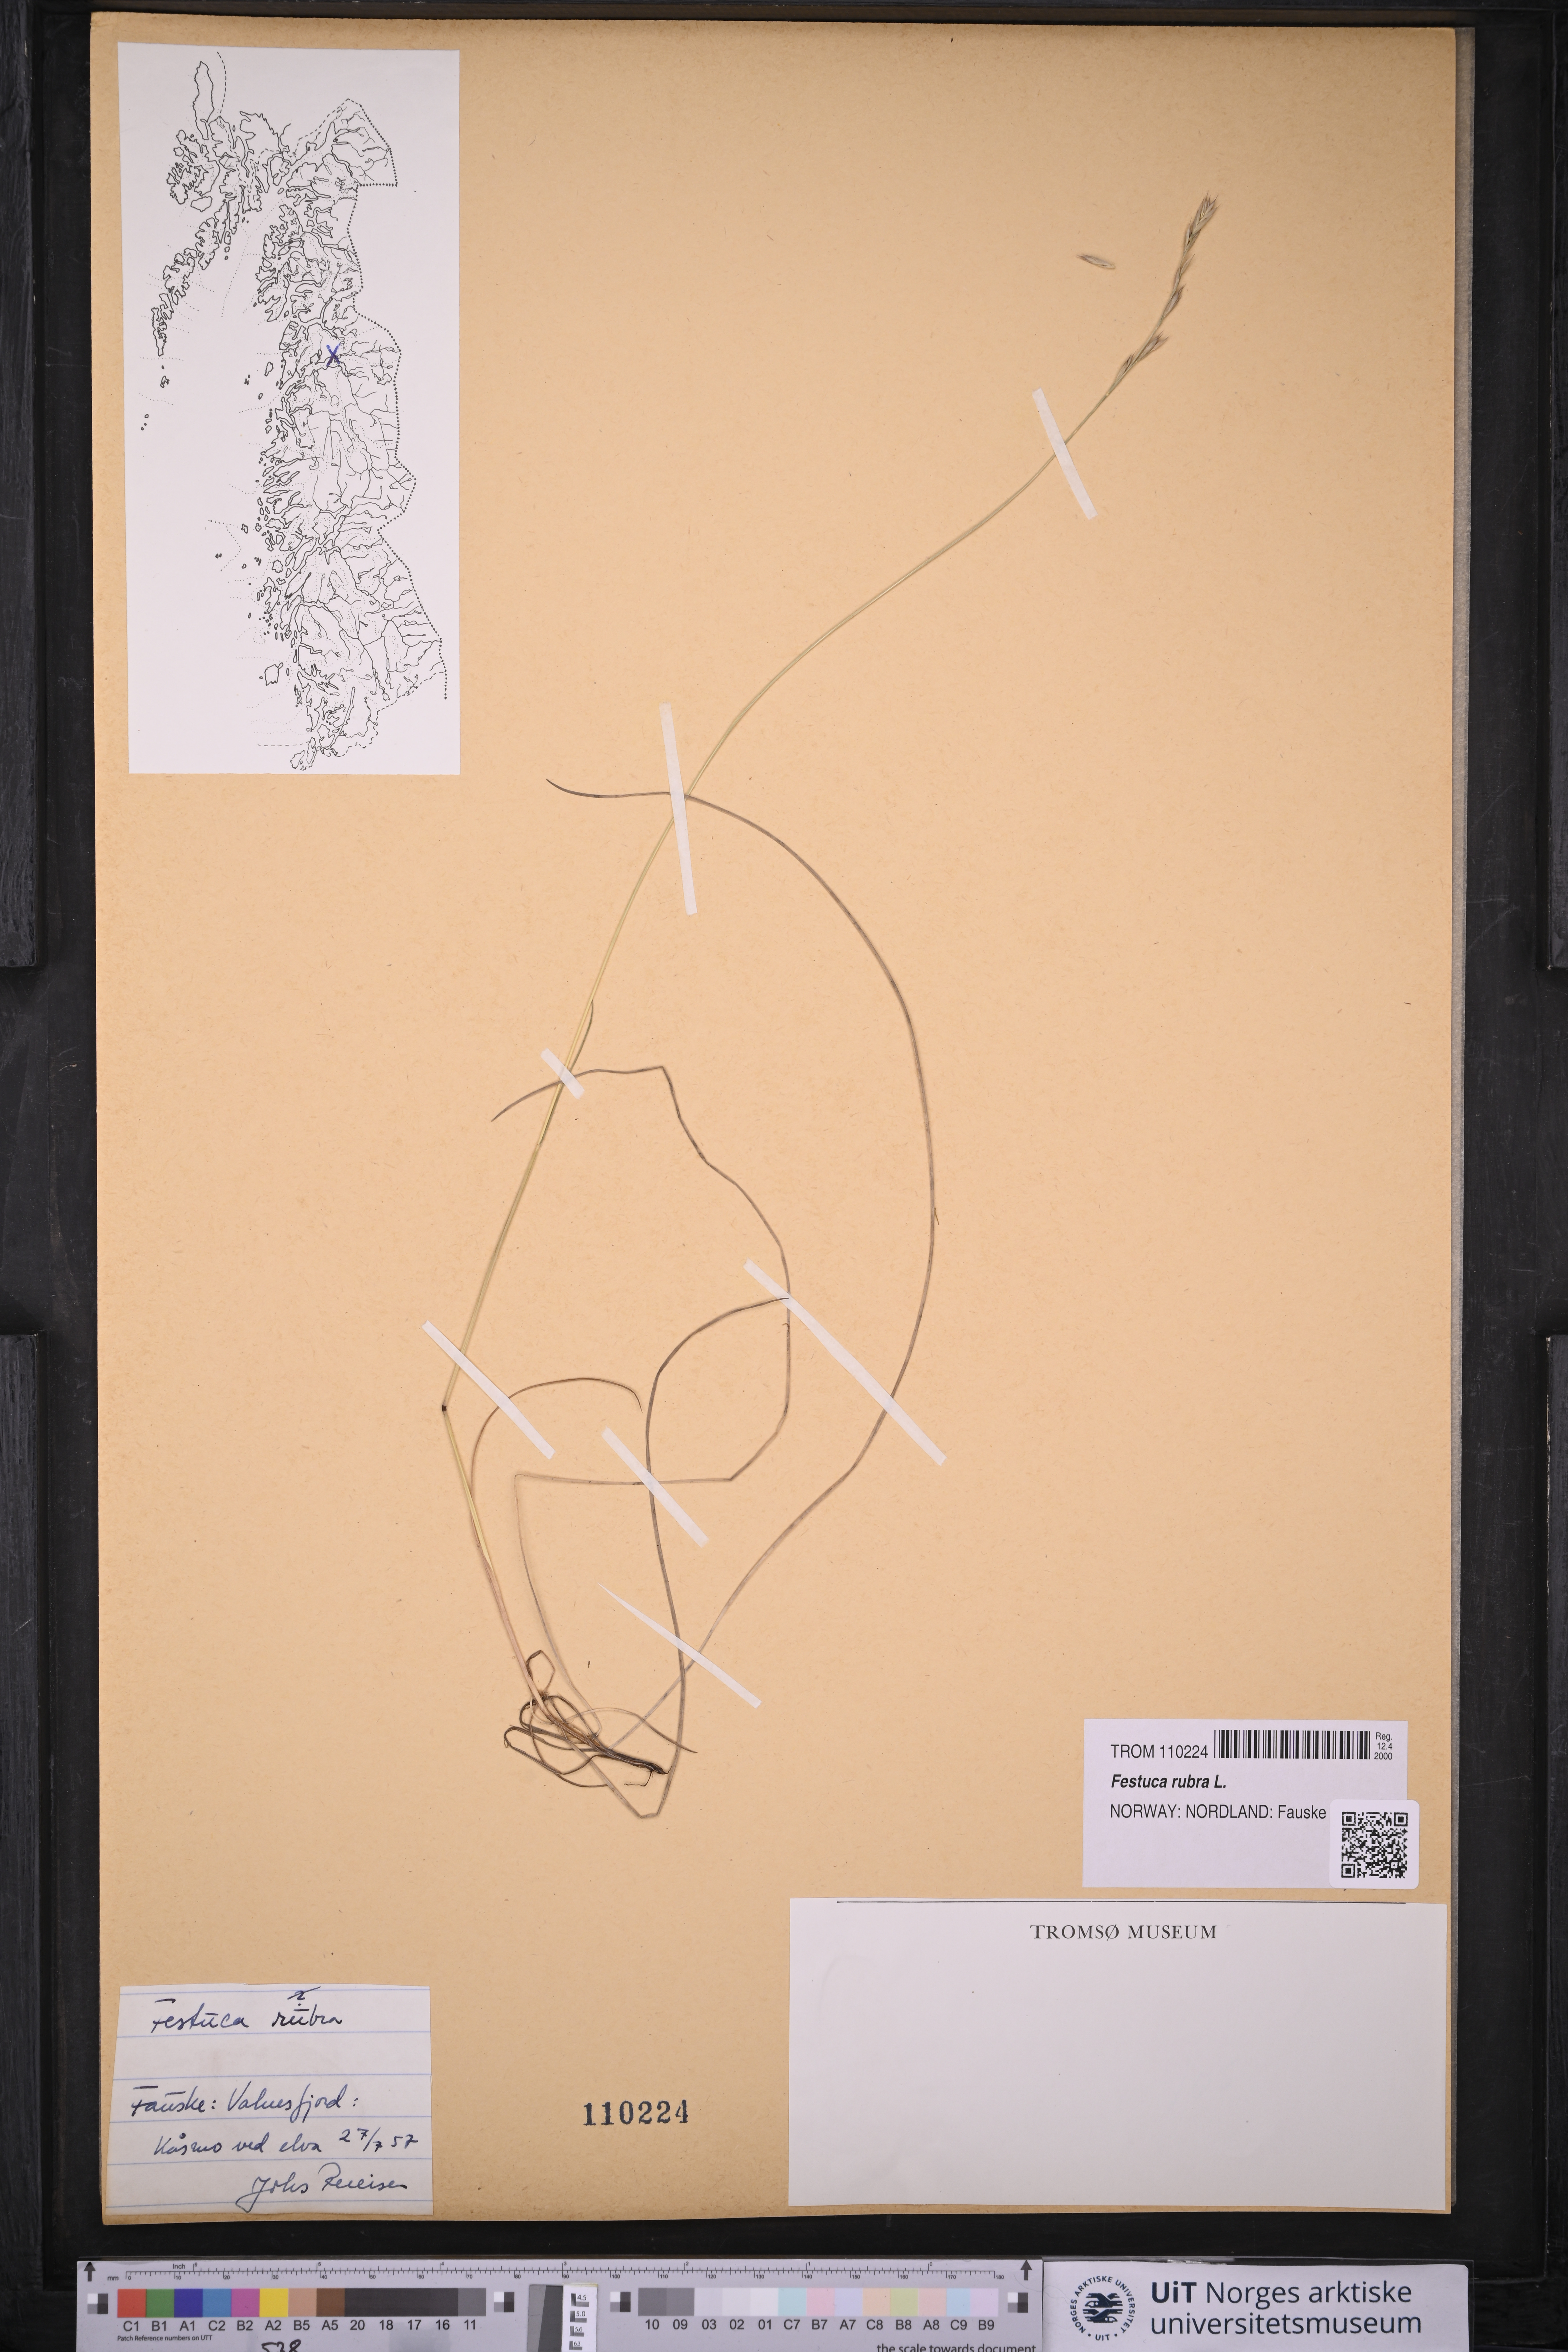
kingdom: Plantae
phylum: Tracheophyta
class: Liliopsida
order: Poales
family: Poaceae
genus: Festuca
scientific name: Festuca rubra
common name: Red fescue
